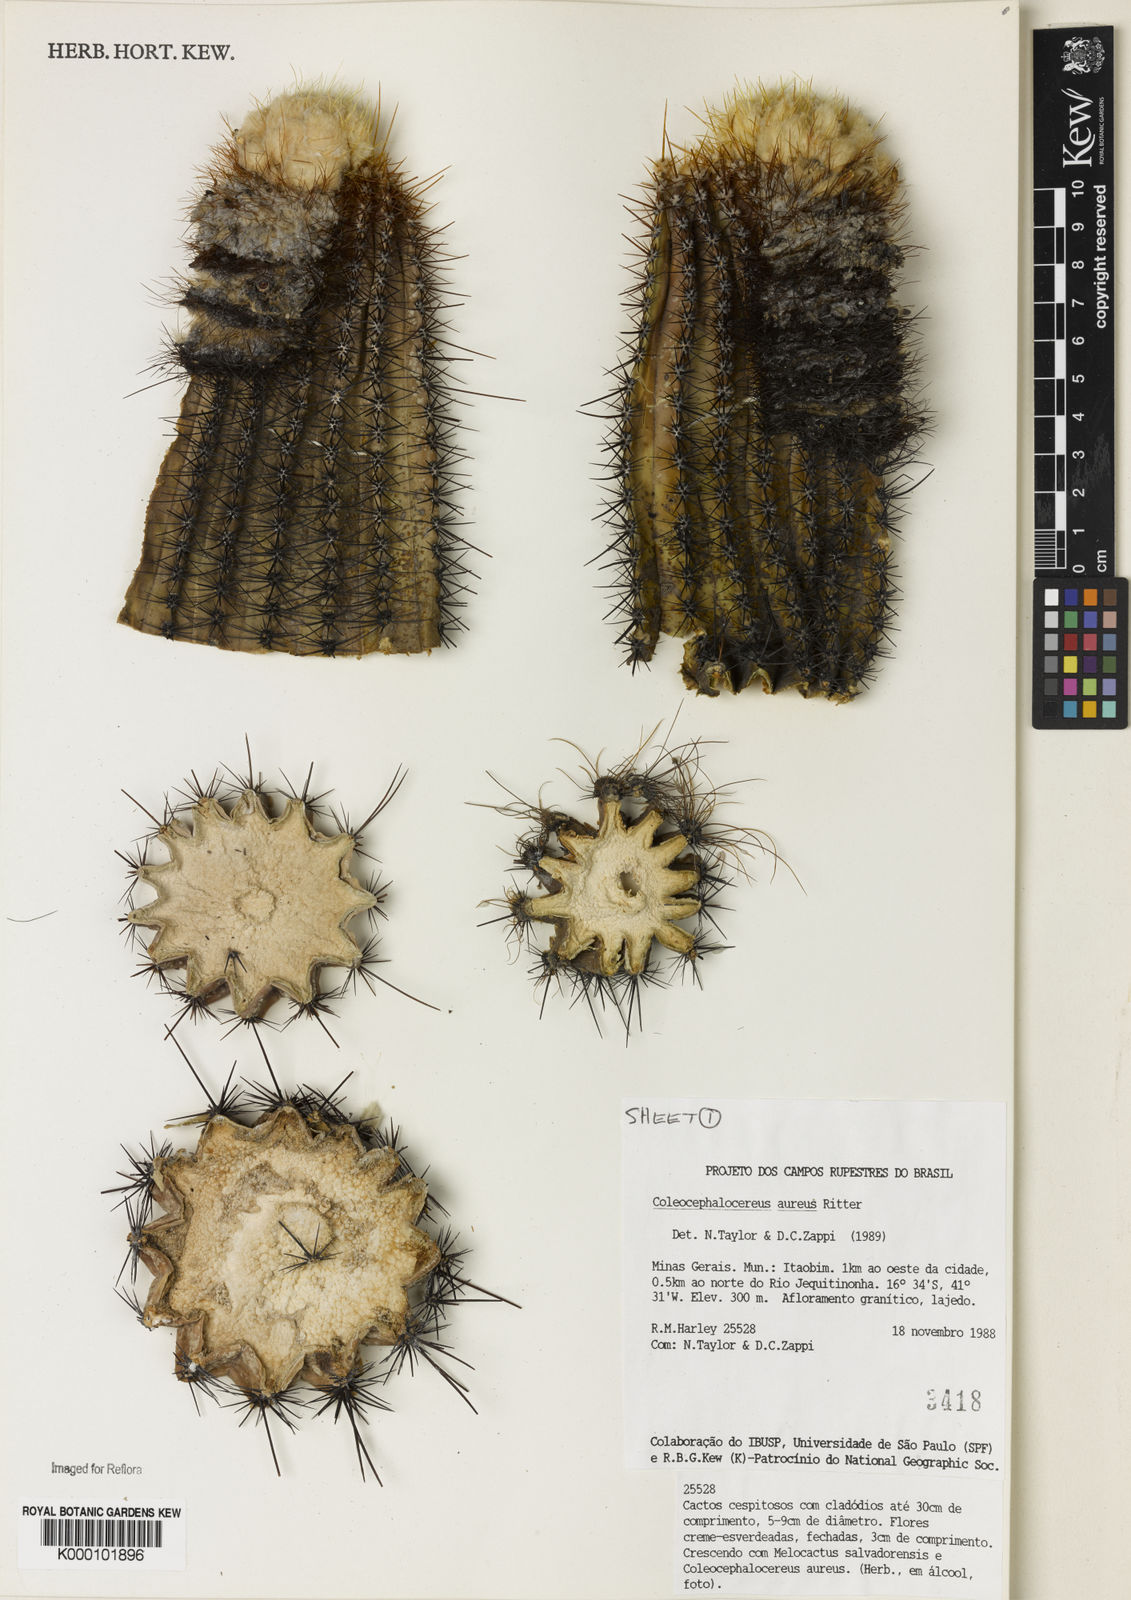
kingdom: Plantae
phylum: Tracheophyta
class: Magnoliopsida
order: Caryophyllales
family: Cactaceae
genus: Coleocephalocereus
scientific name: Coleocephalocereus aureus
